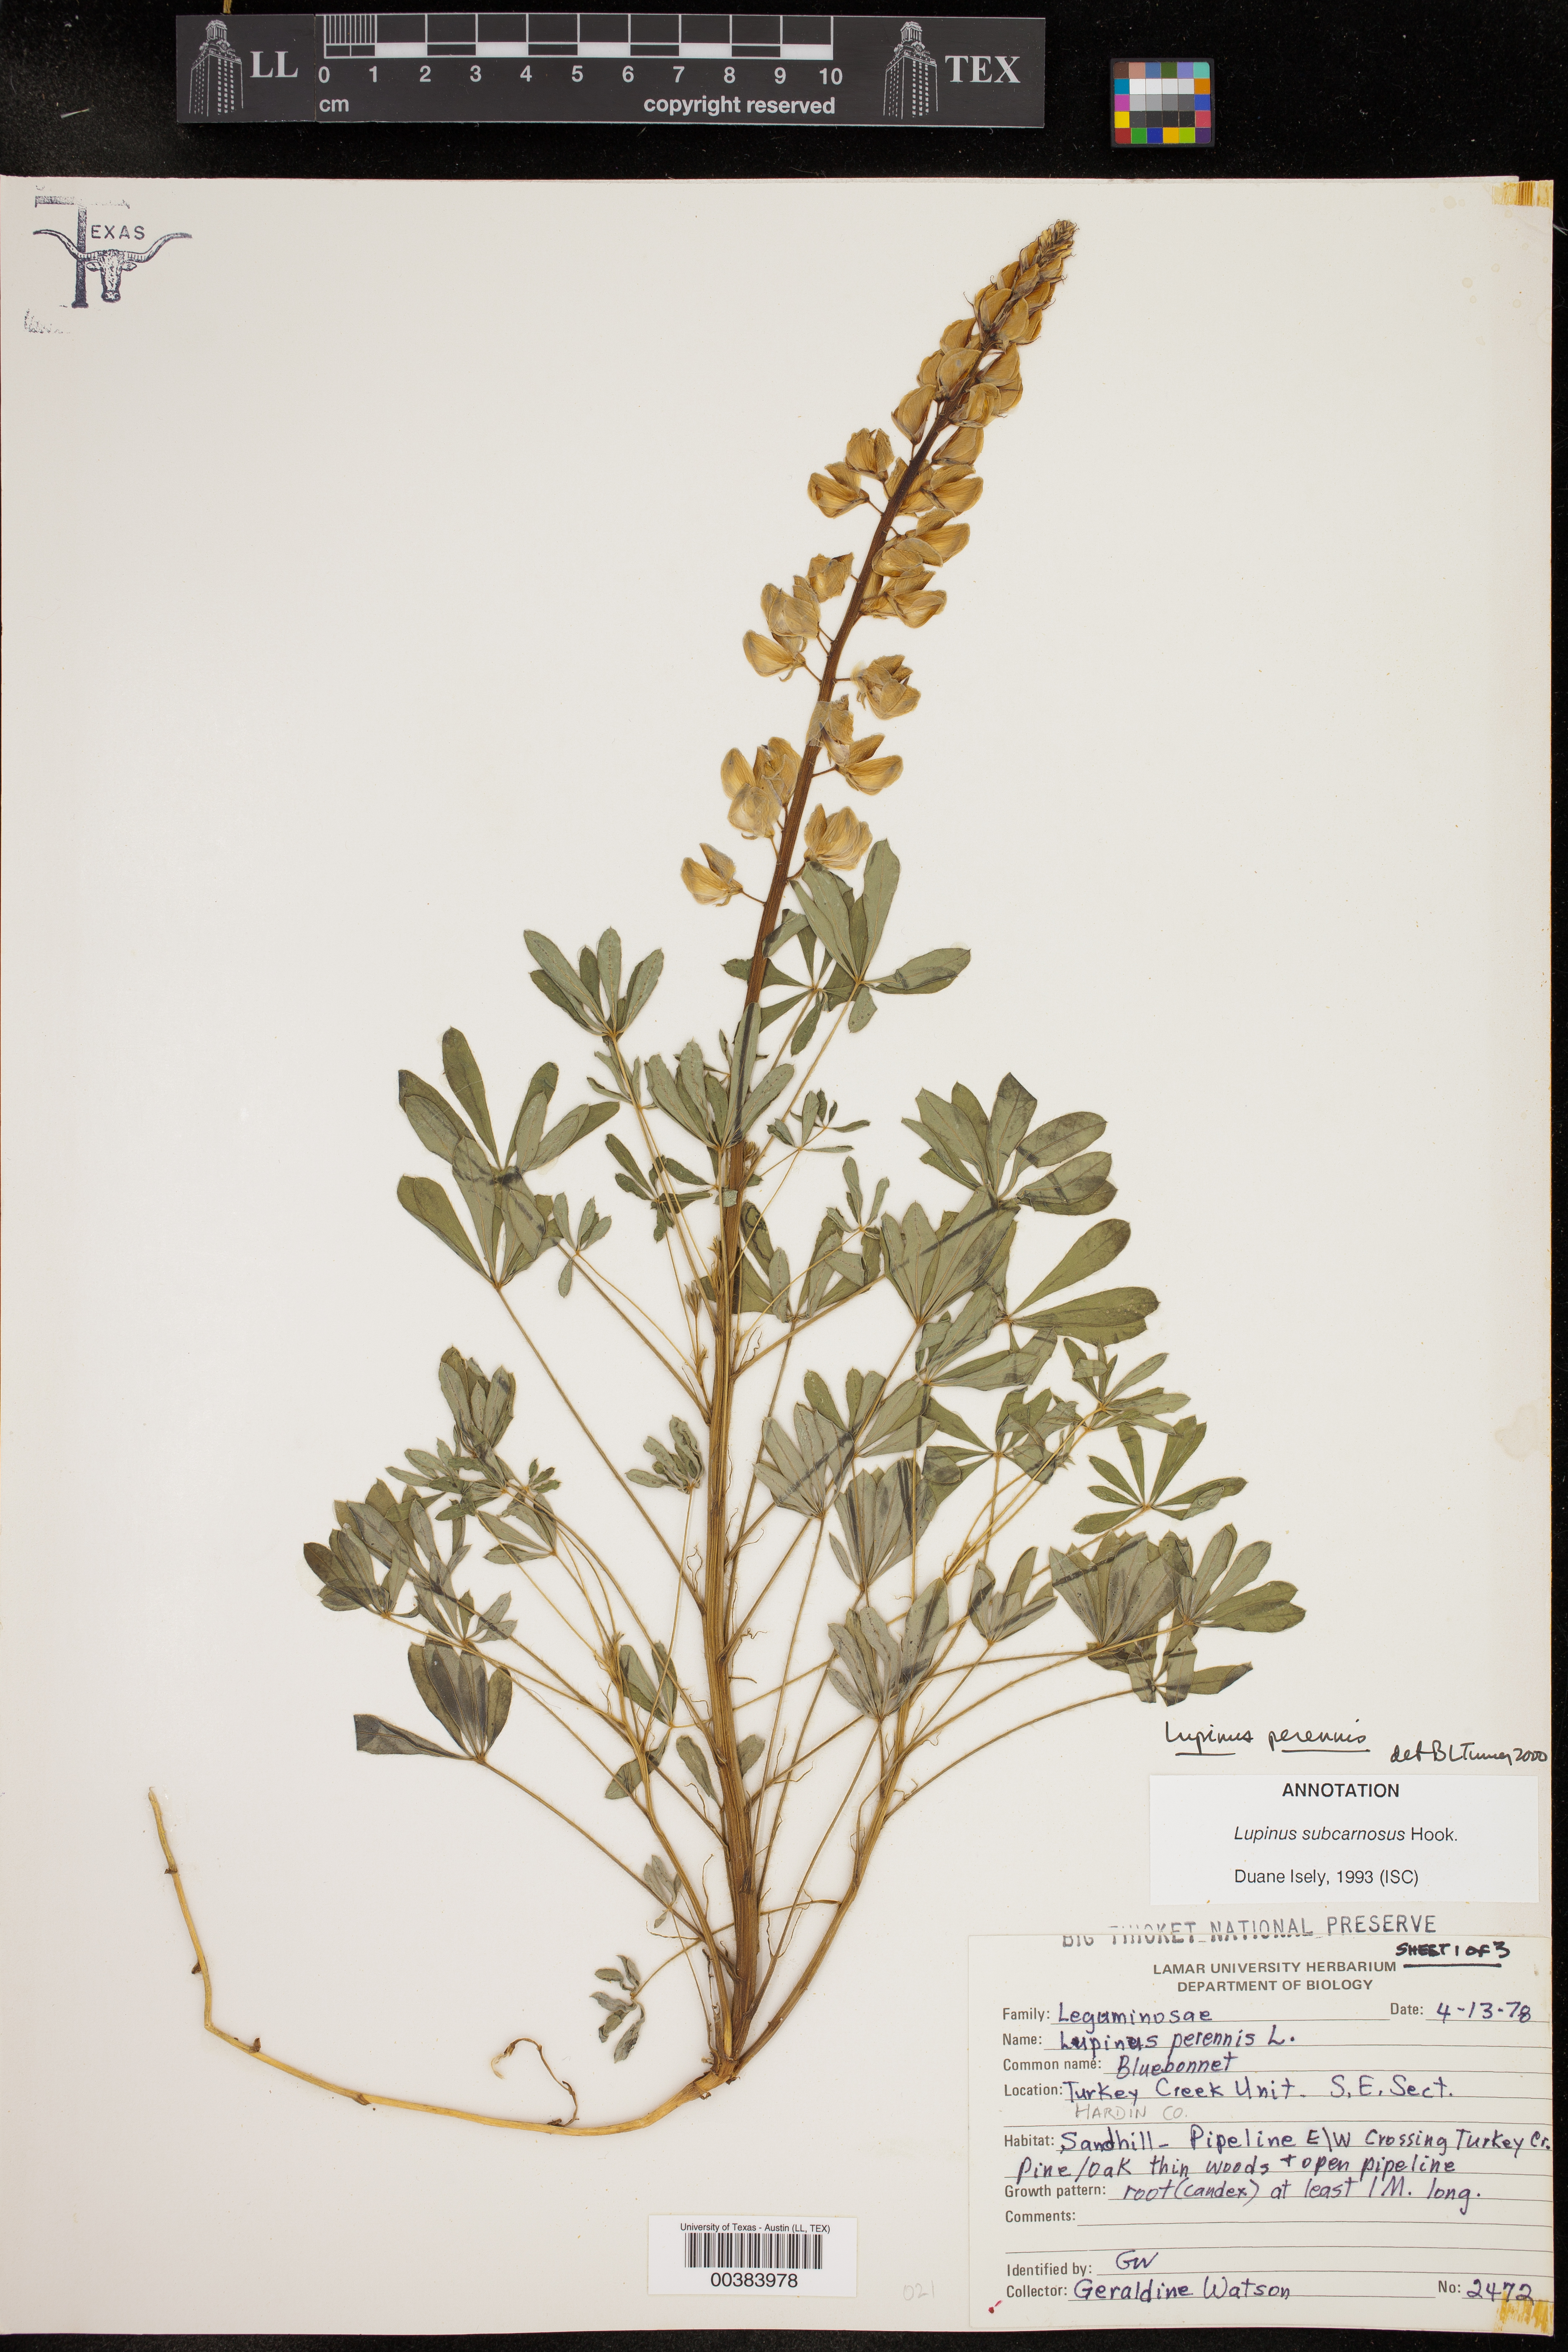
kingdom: Plantae
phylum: Tracheophyta
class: Magnoliopsida
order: Fabales
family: Fabaceae
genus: Lupinus
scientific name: Lupinus perennis
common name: Sundial lupine
